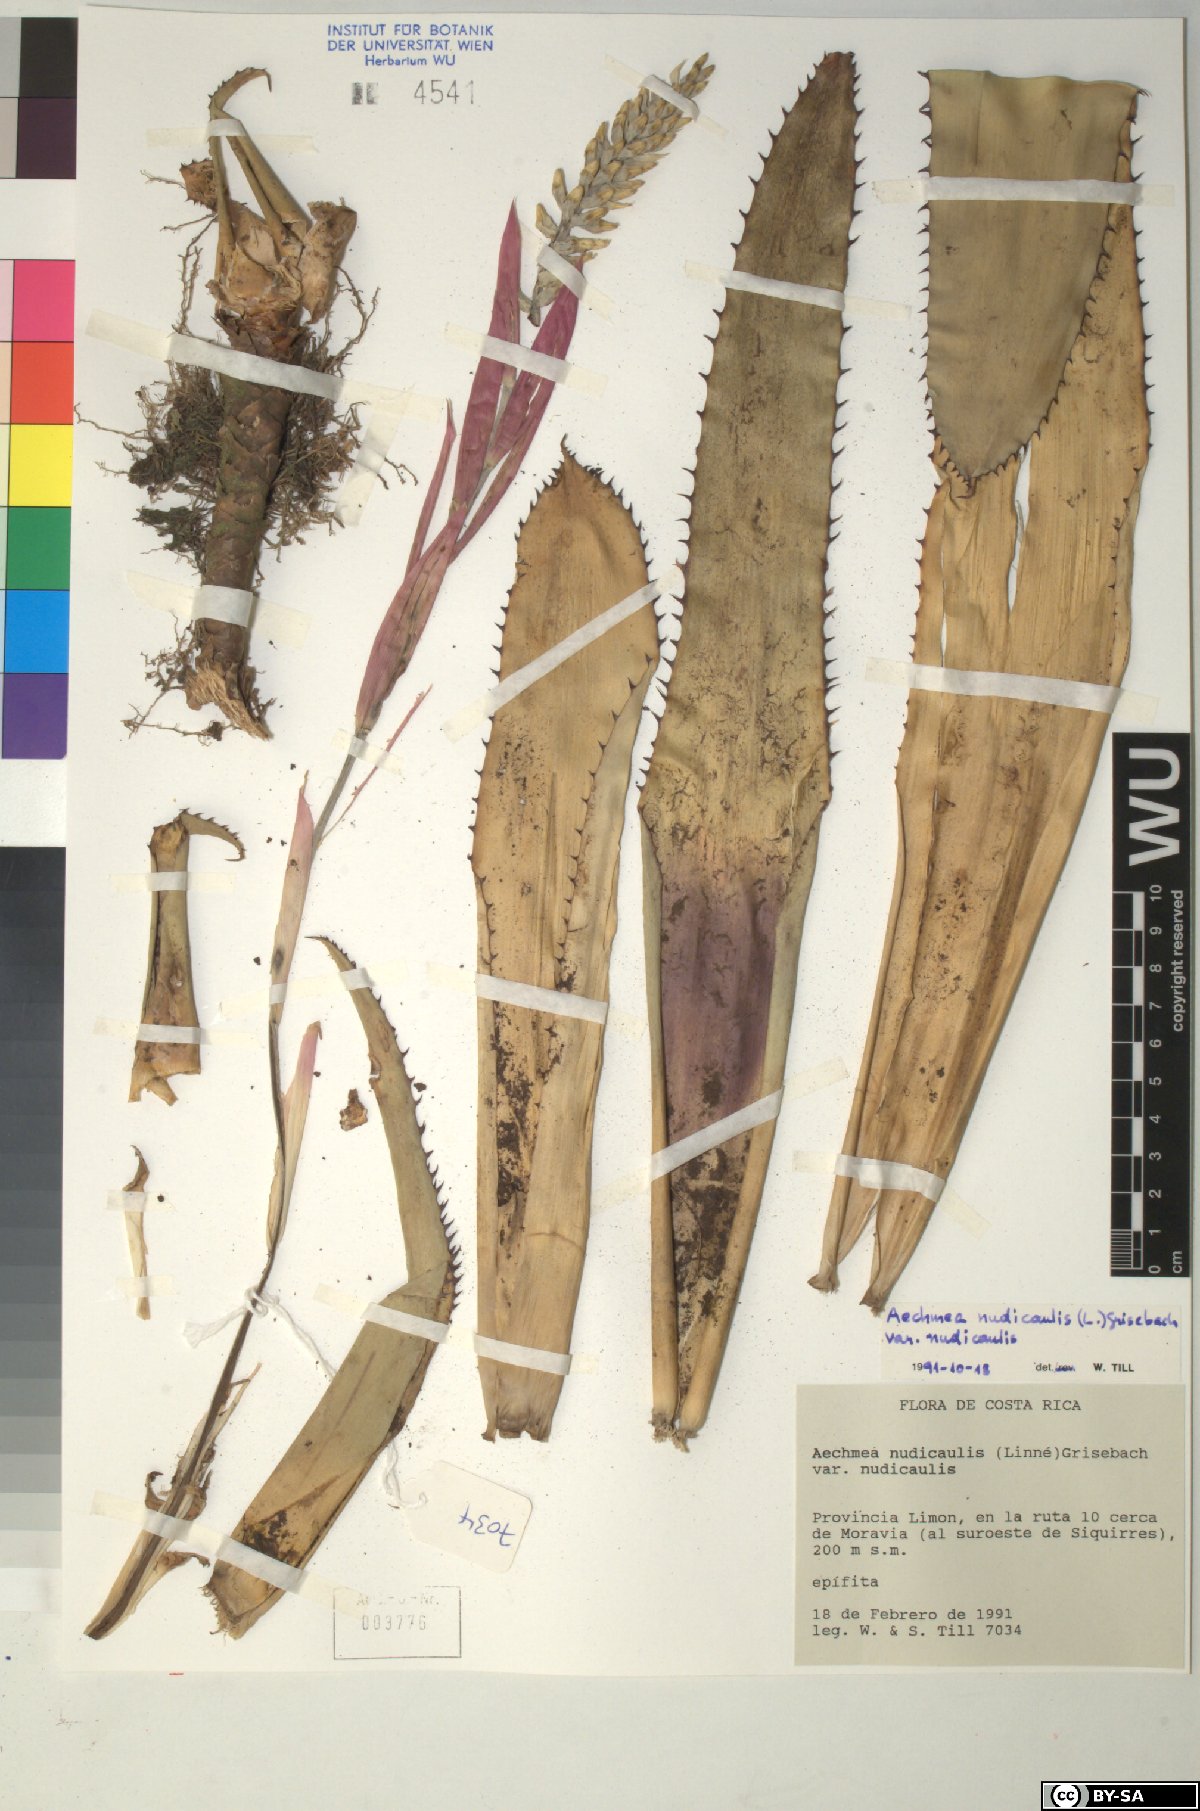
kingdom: Plantae
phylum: Tracheophyta
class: Liliopsida
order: Poales
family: Bromeliaceae
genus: Aechmea
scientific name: Aechmea nudicaulis
